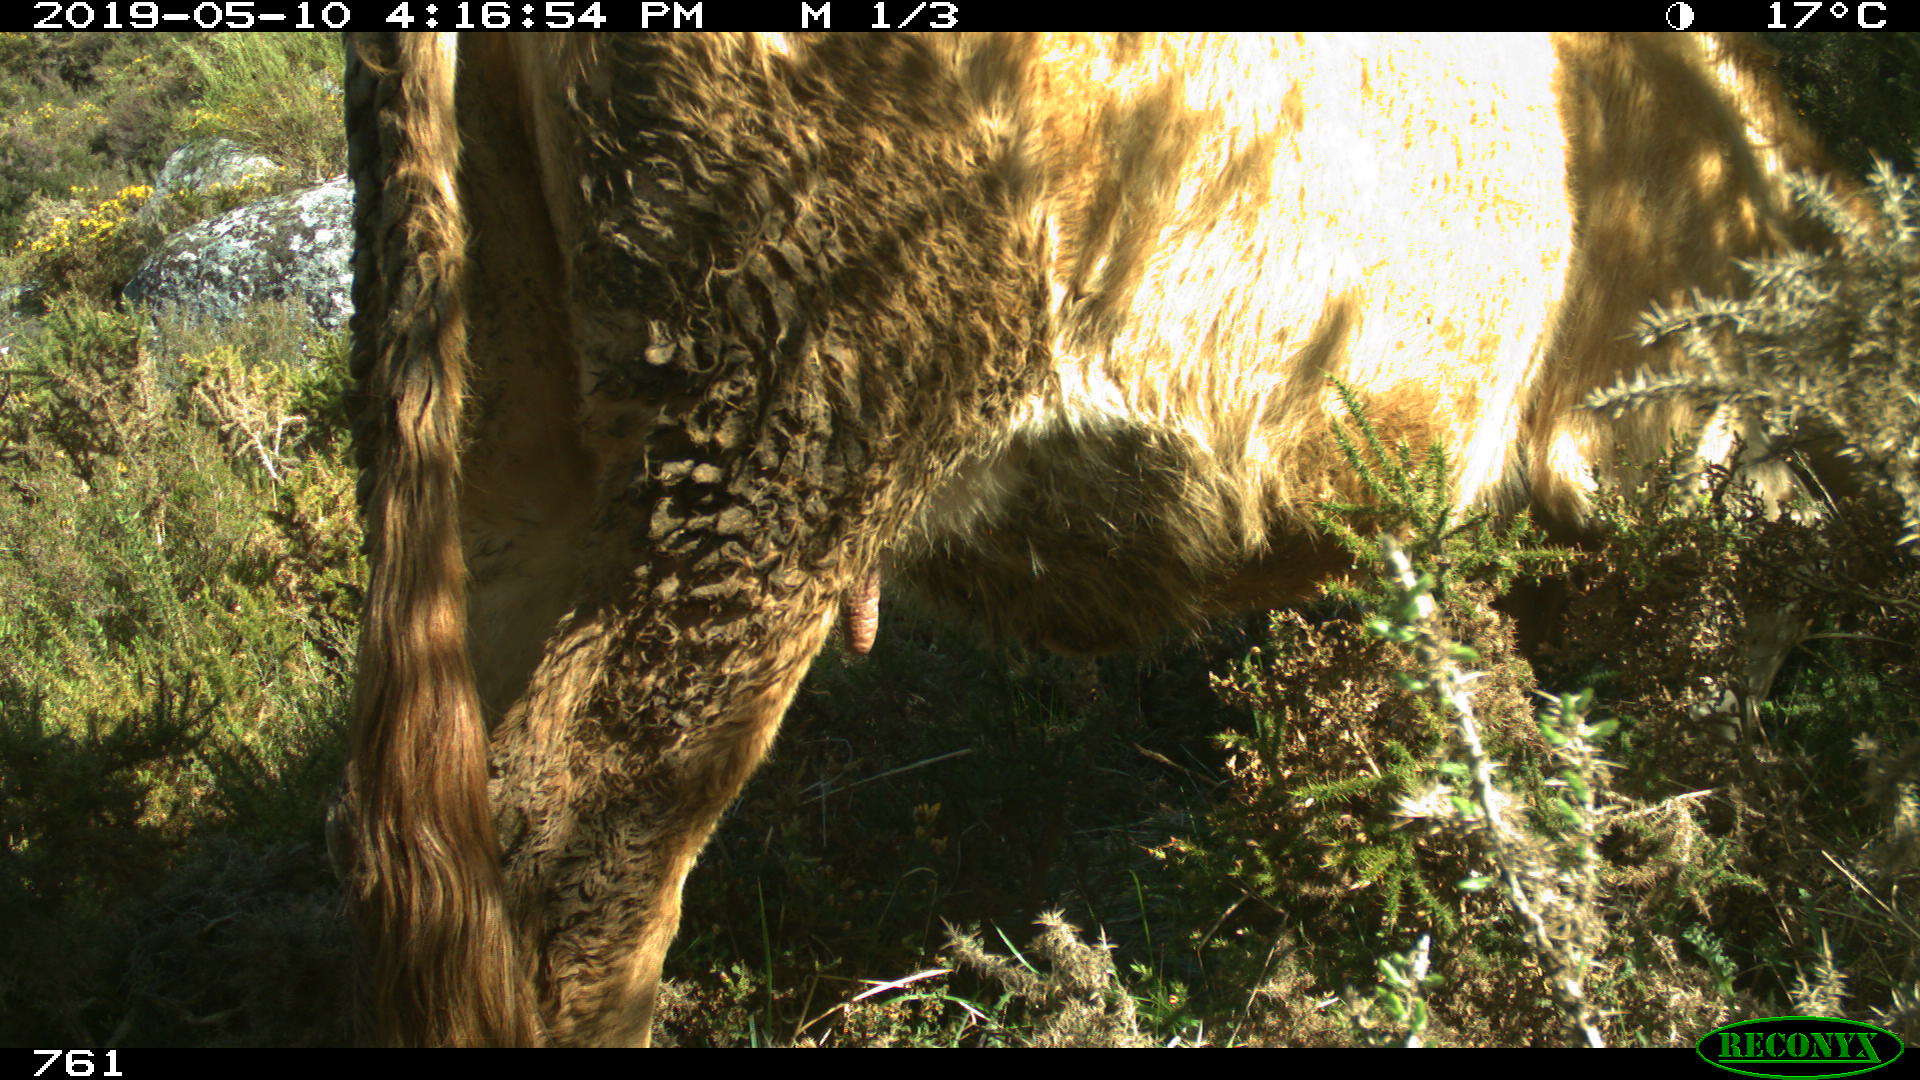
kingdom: Animalia
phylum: Chordata
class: Mammalia
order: Artiodactyla
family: Bovidae
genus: Bos
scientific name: Bos taurus
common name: Domesticated cattle
